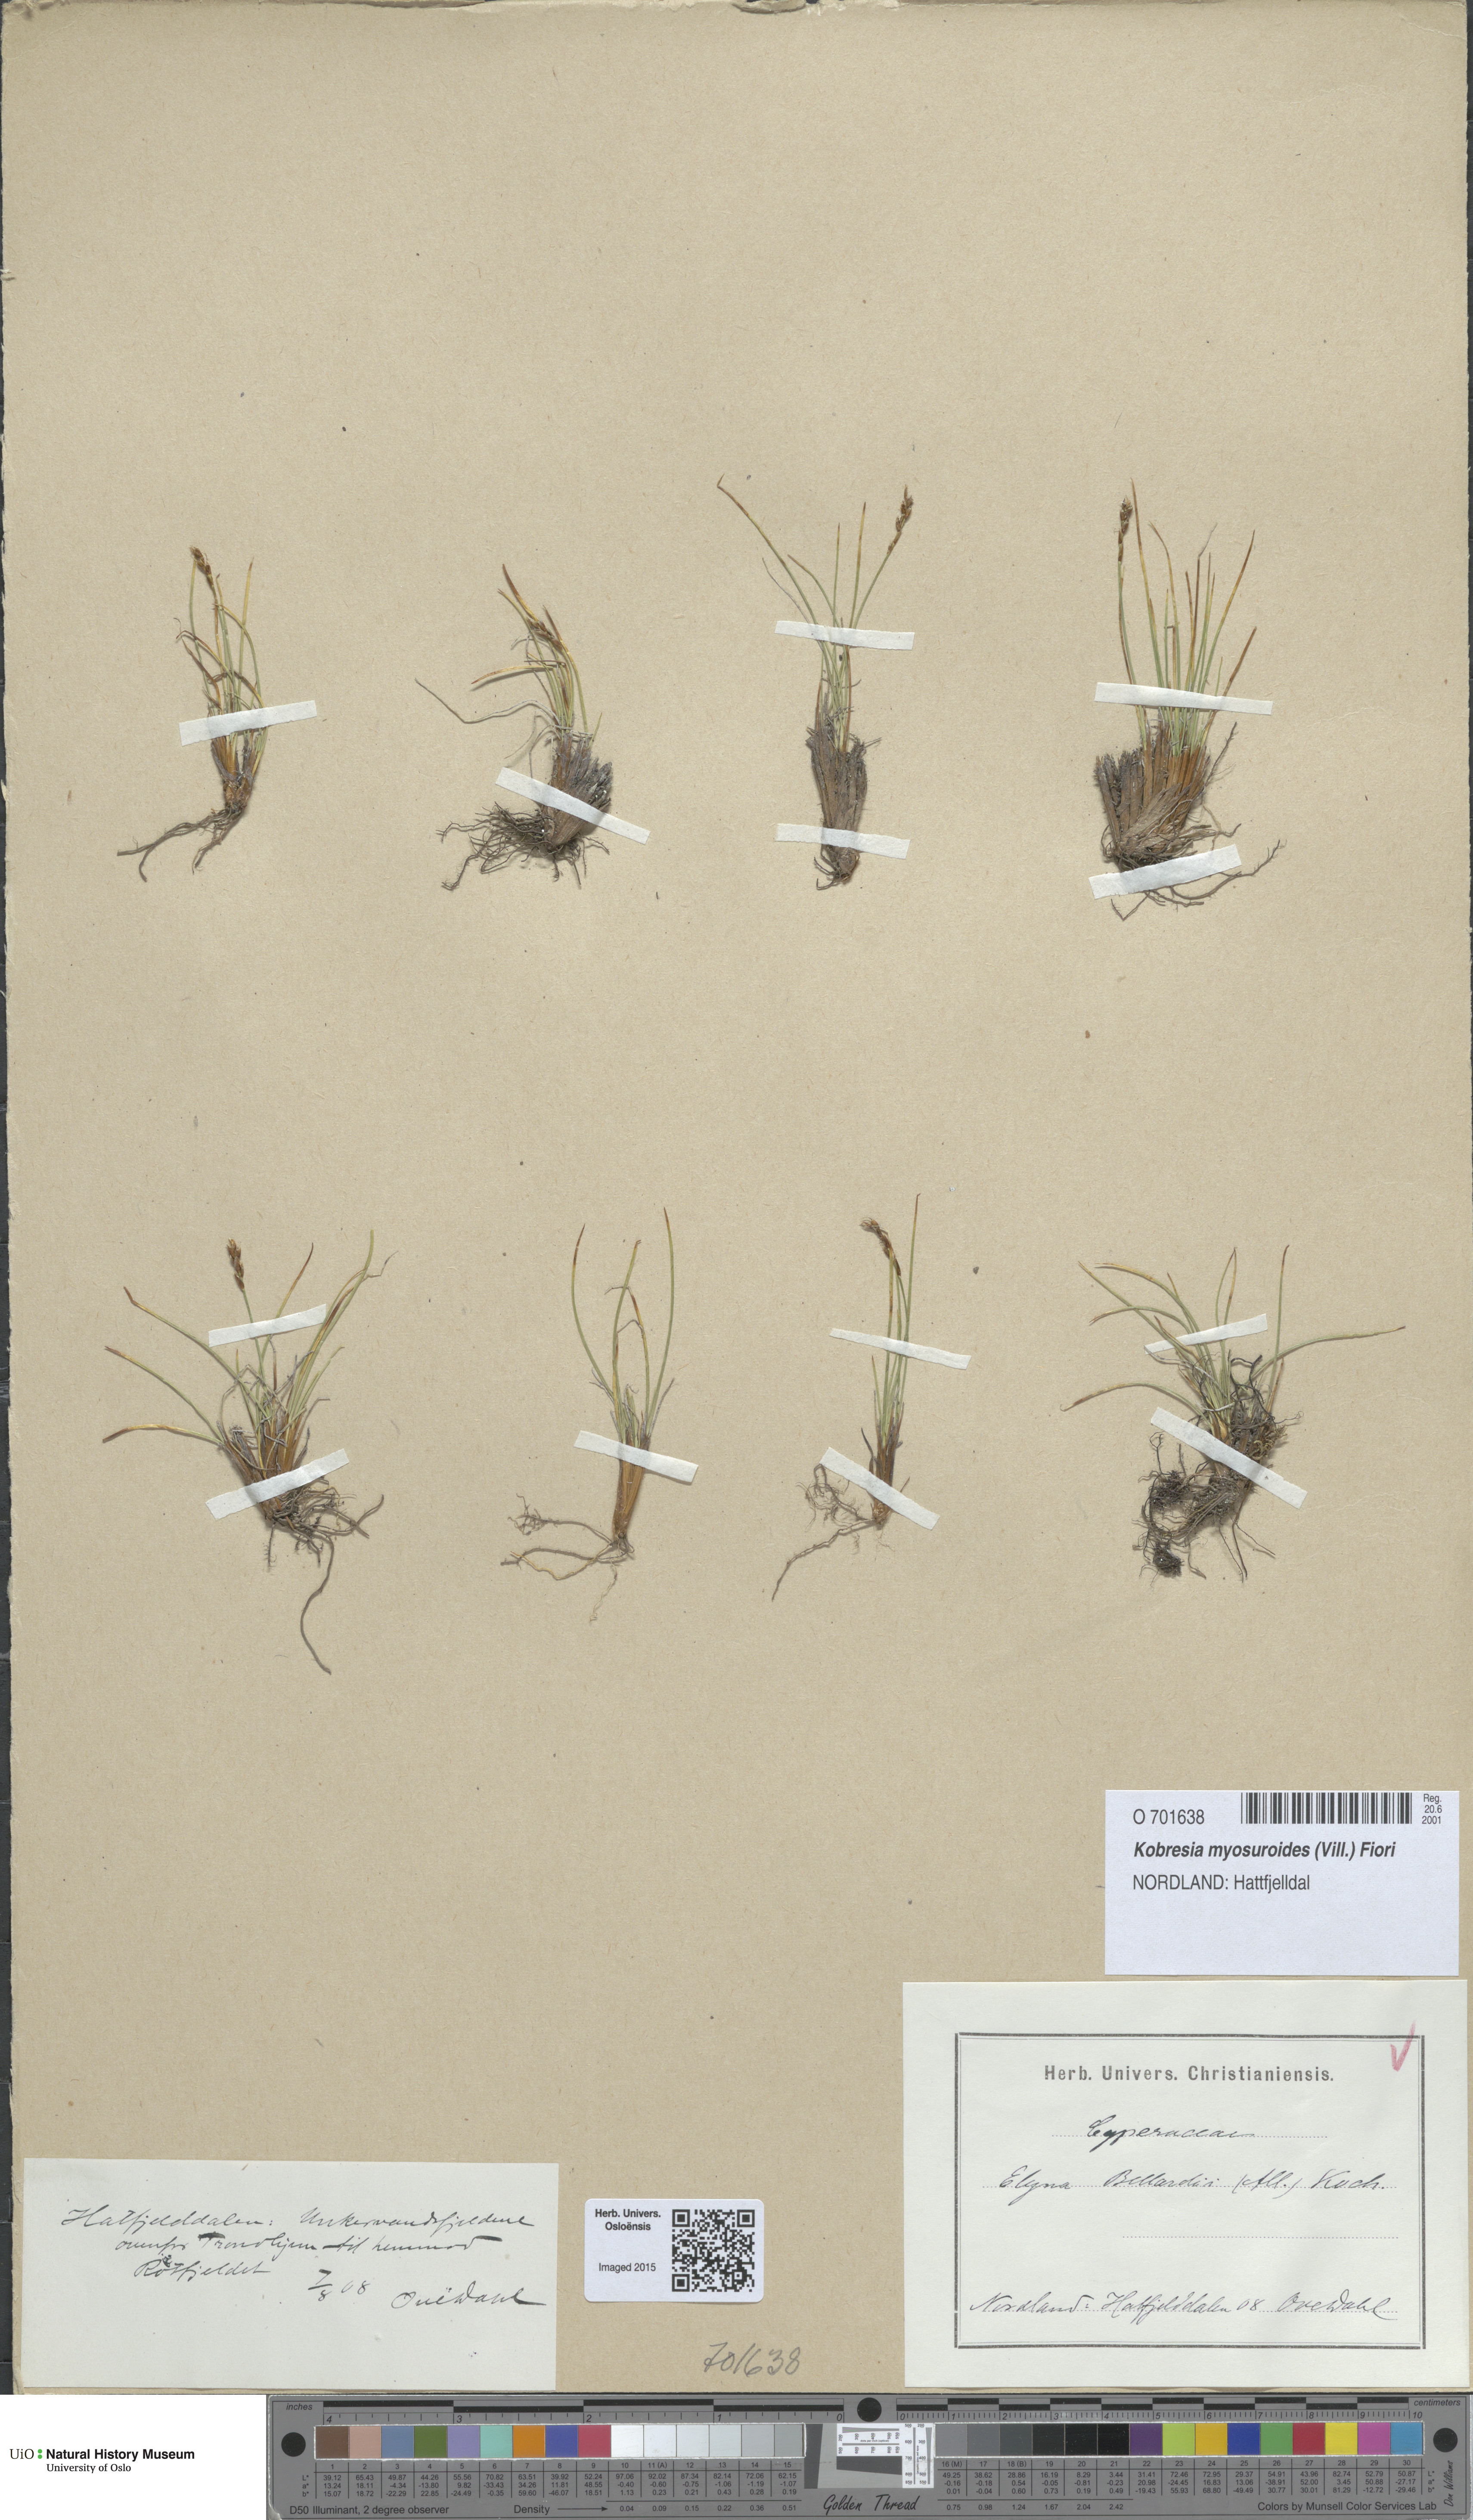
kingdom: Plantae
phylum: Tracheophyta
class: Liliopsida
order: Poales
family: Cyperaceae
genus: Carex
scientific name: Carex myosuroides
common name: Bellard's bog sedge
